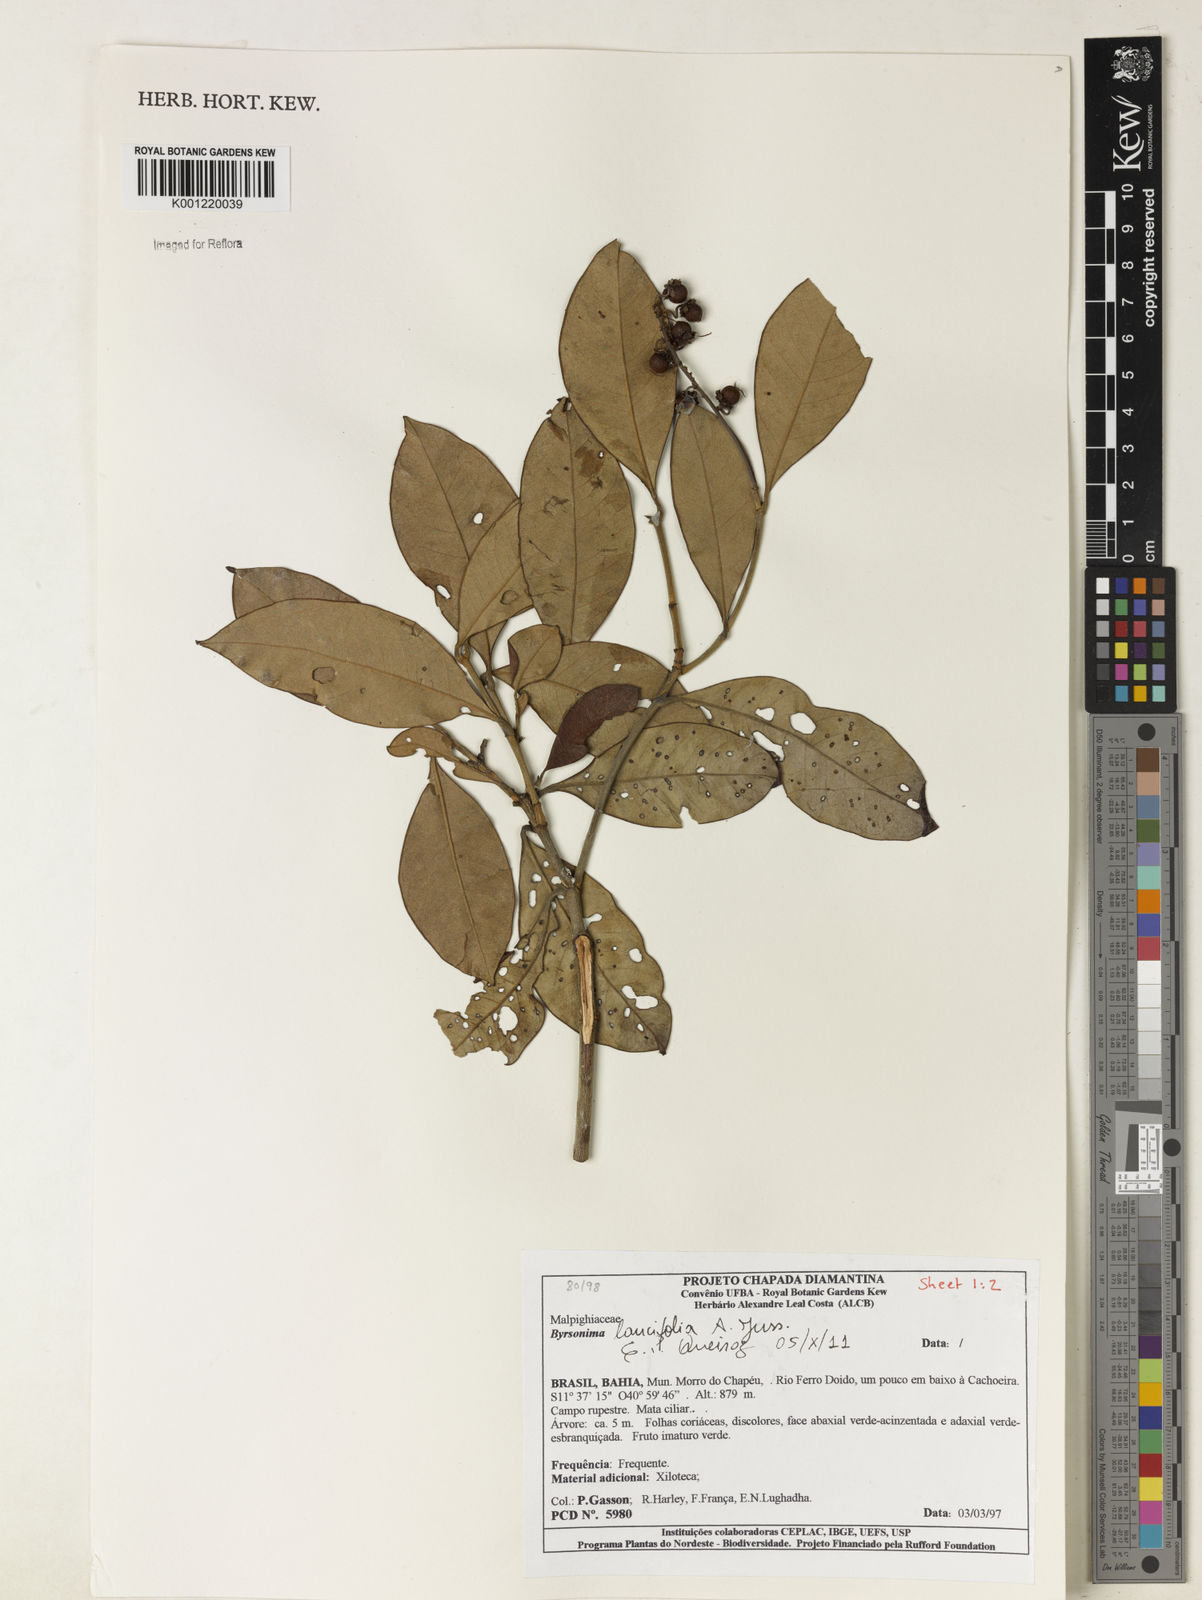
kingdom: Plantae
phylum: Tracheophyta
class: Magnoliopsida
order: Malpighiales
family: Malpighiaceae
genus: Byrsonima
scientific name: Byrsonima lancifolia
